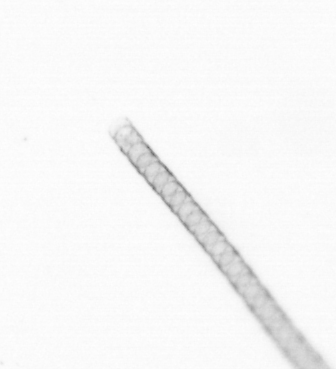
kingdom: Chromista
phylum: Ochrophyta
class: Bacillariophyceae
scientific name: Bacillariophyceae
